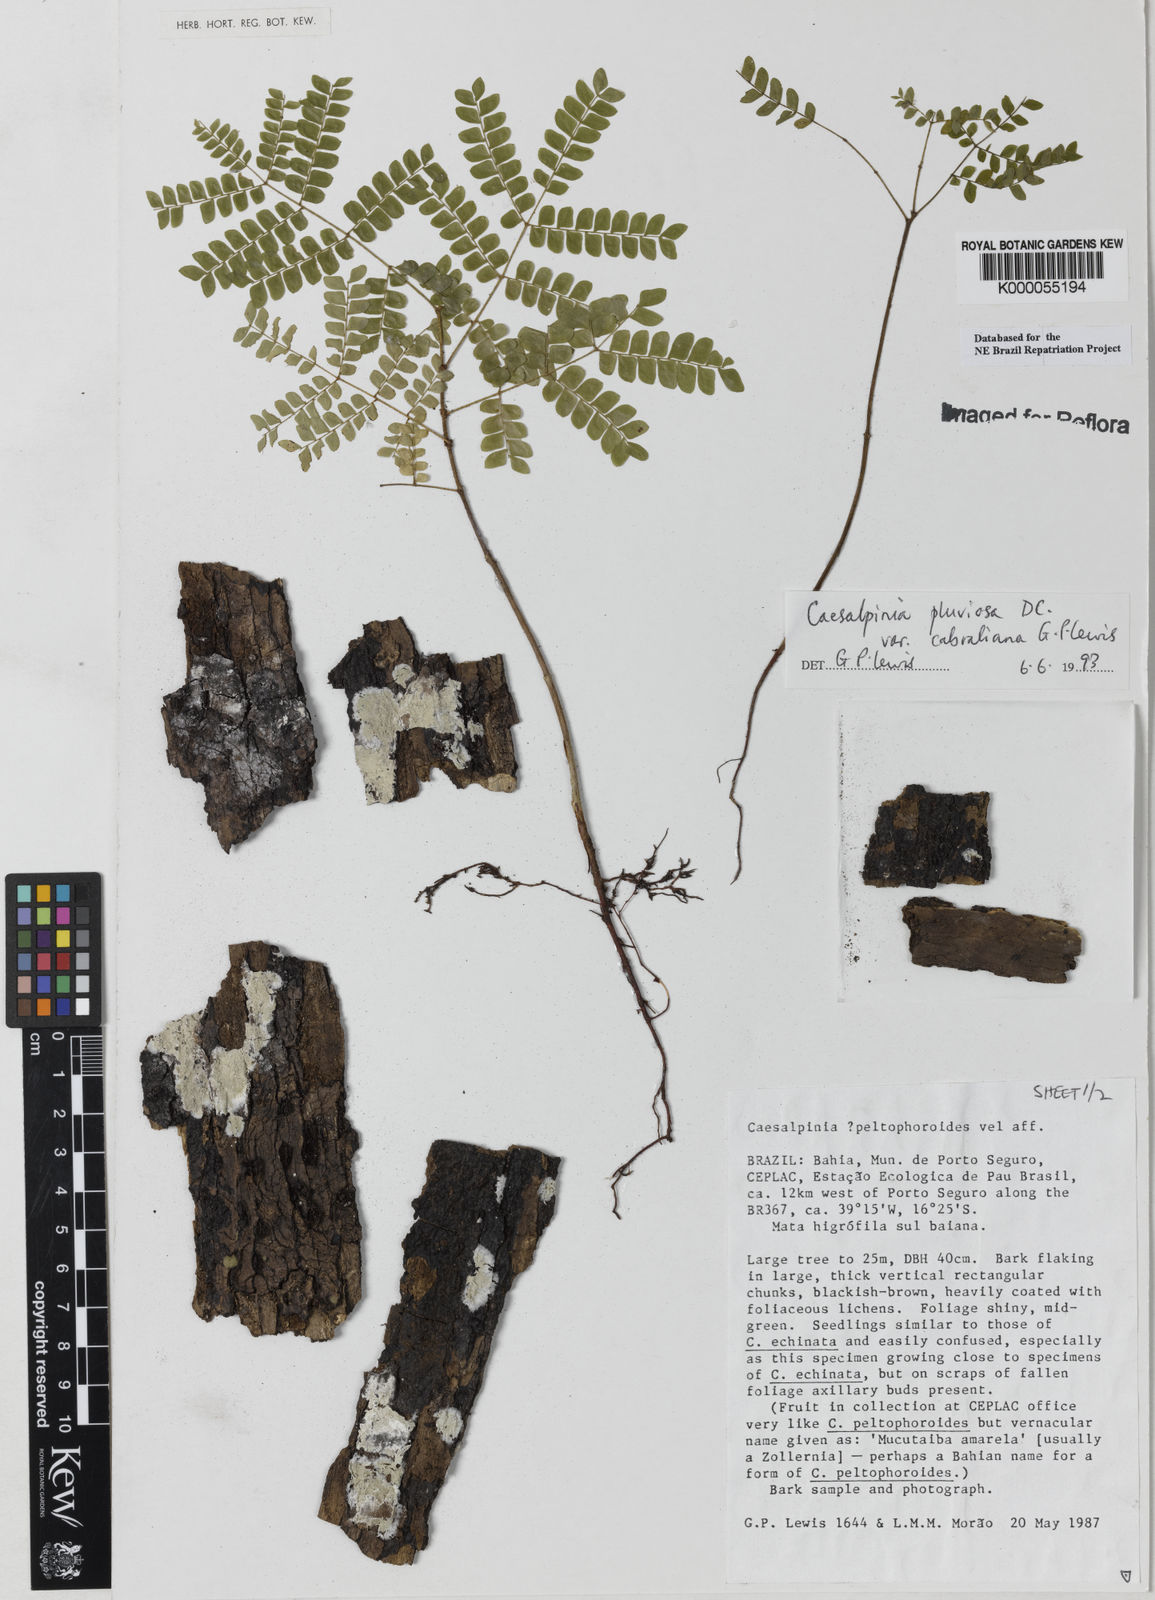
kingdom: Plantae
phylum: Tracheophyta
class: Magnoliopsida
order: Fabales
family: Fabaceae
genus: Cenostigma
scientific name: Cenostigma pluviosum
